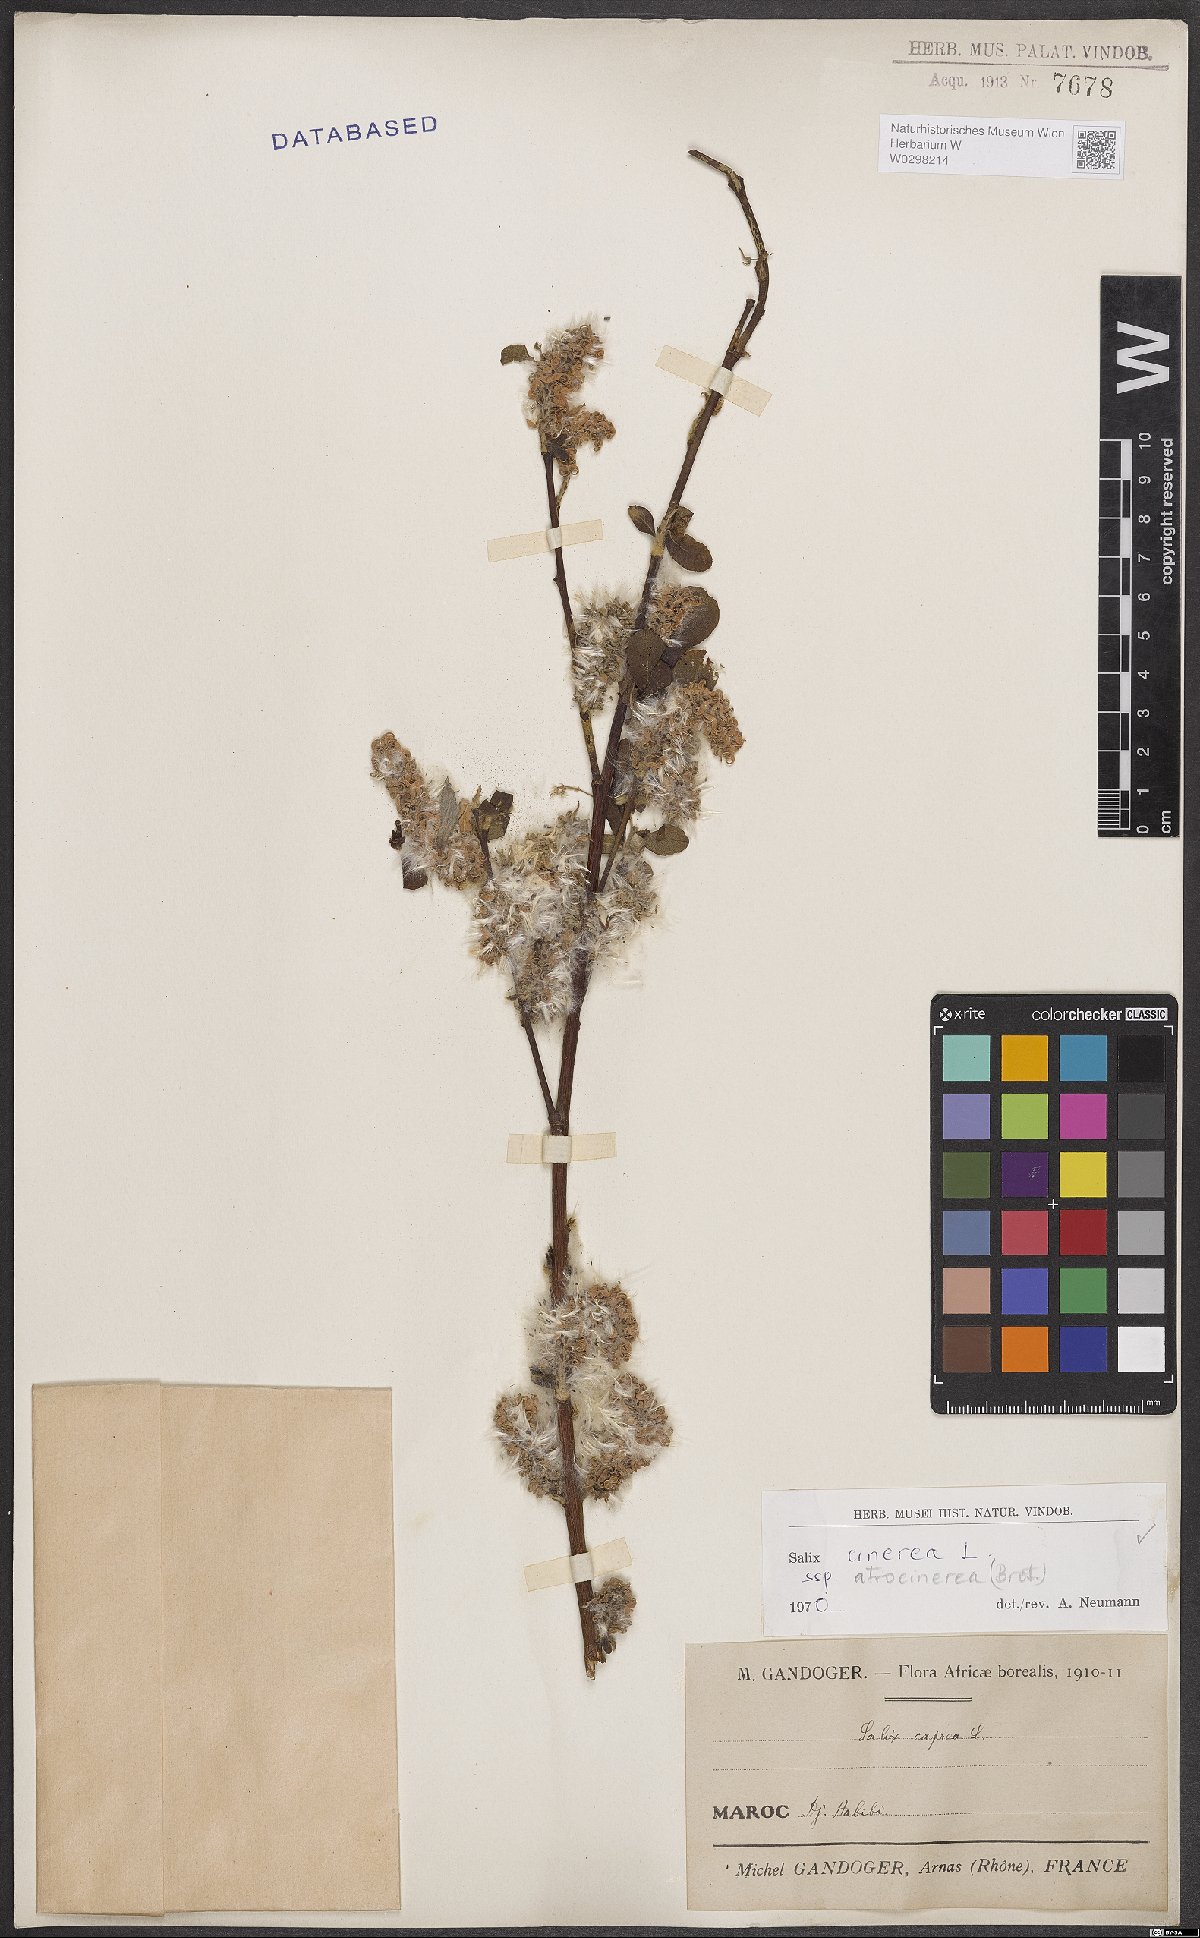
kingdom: Plantae
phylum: Tracheophyta
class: Magnoliopsida
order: Malpighiales
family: Salicaceae
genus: Salix
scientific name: Salix atrocinerea
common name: Rusty willow
